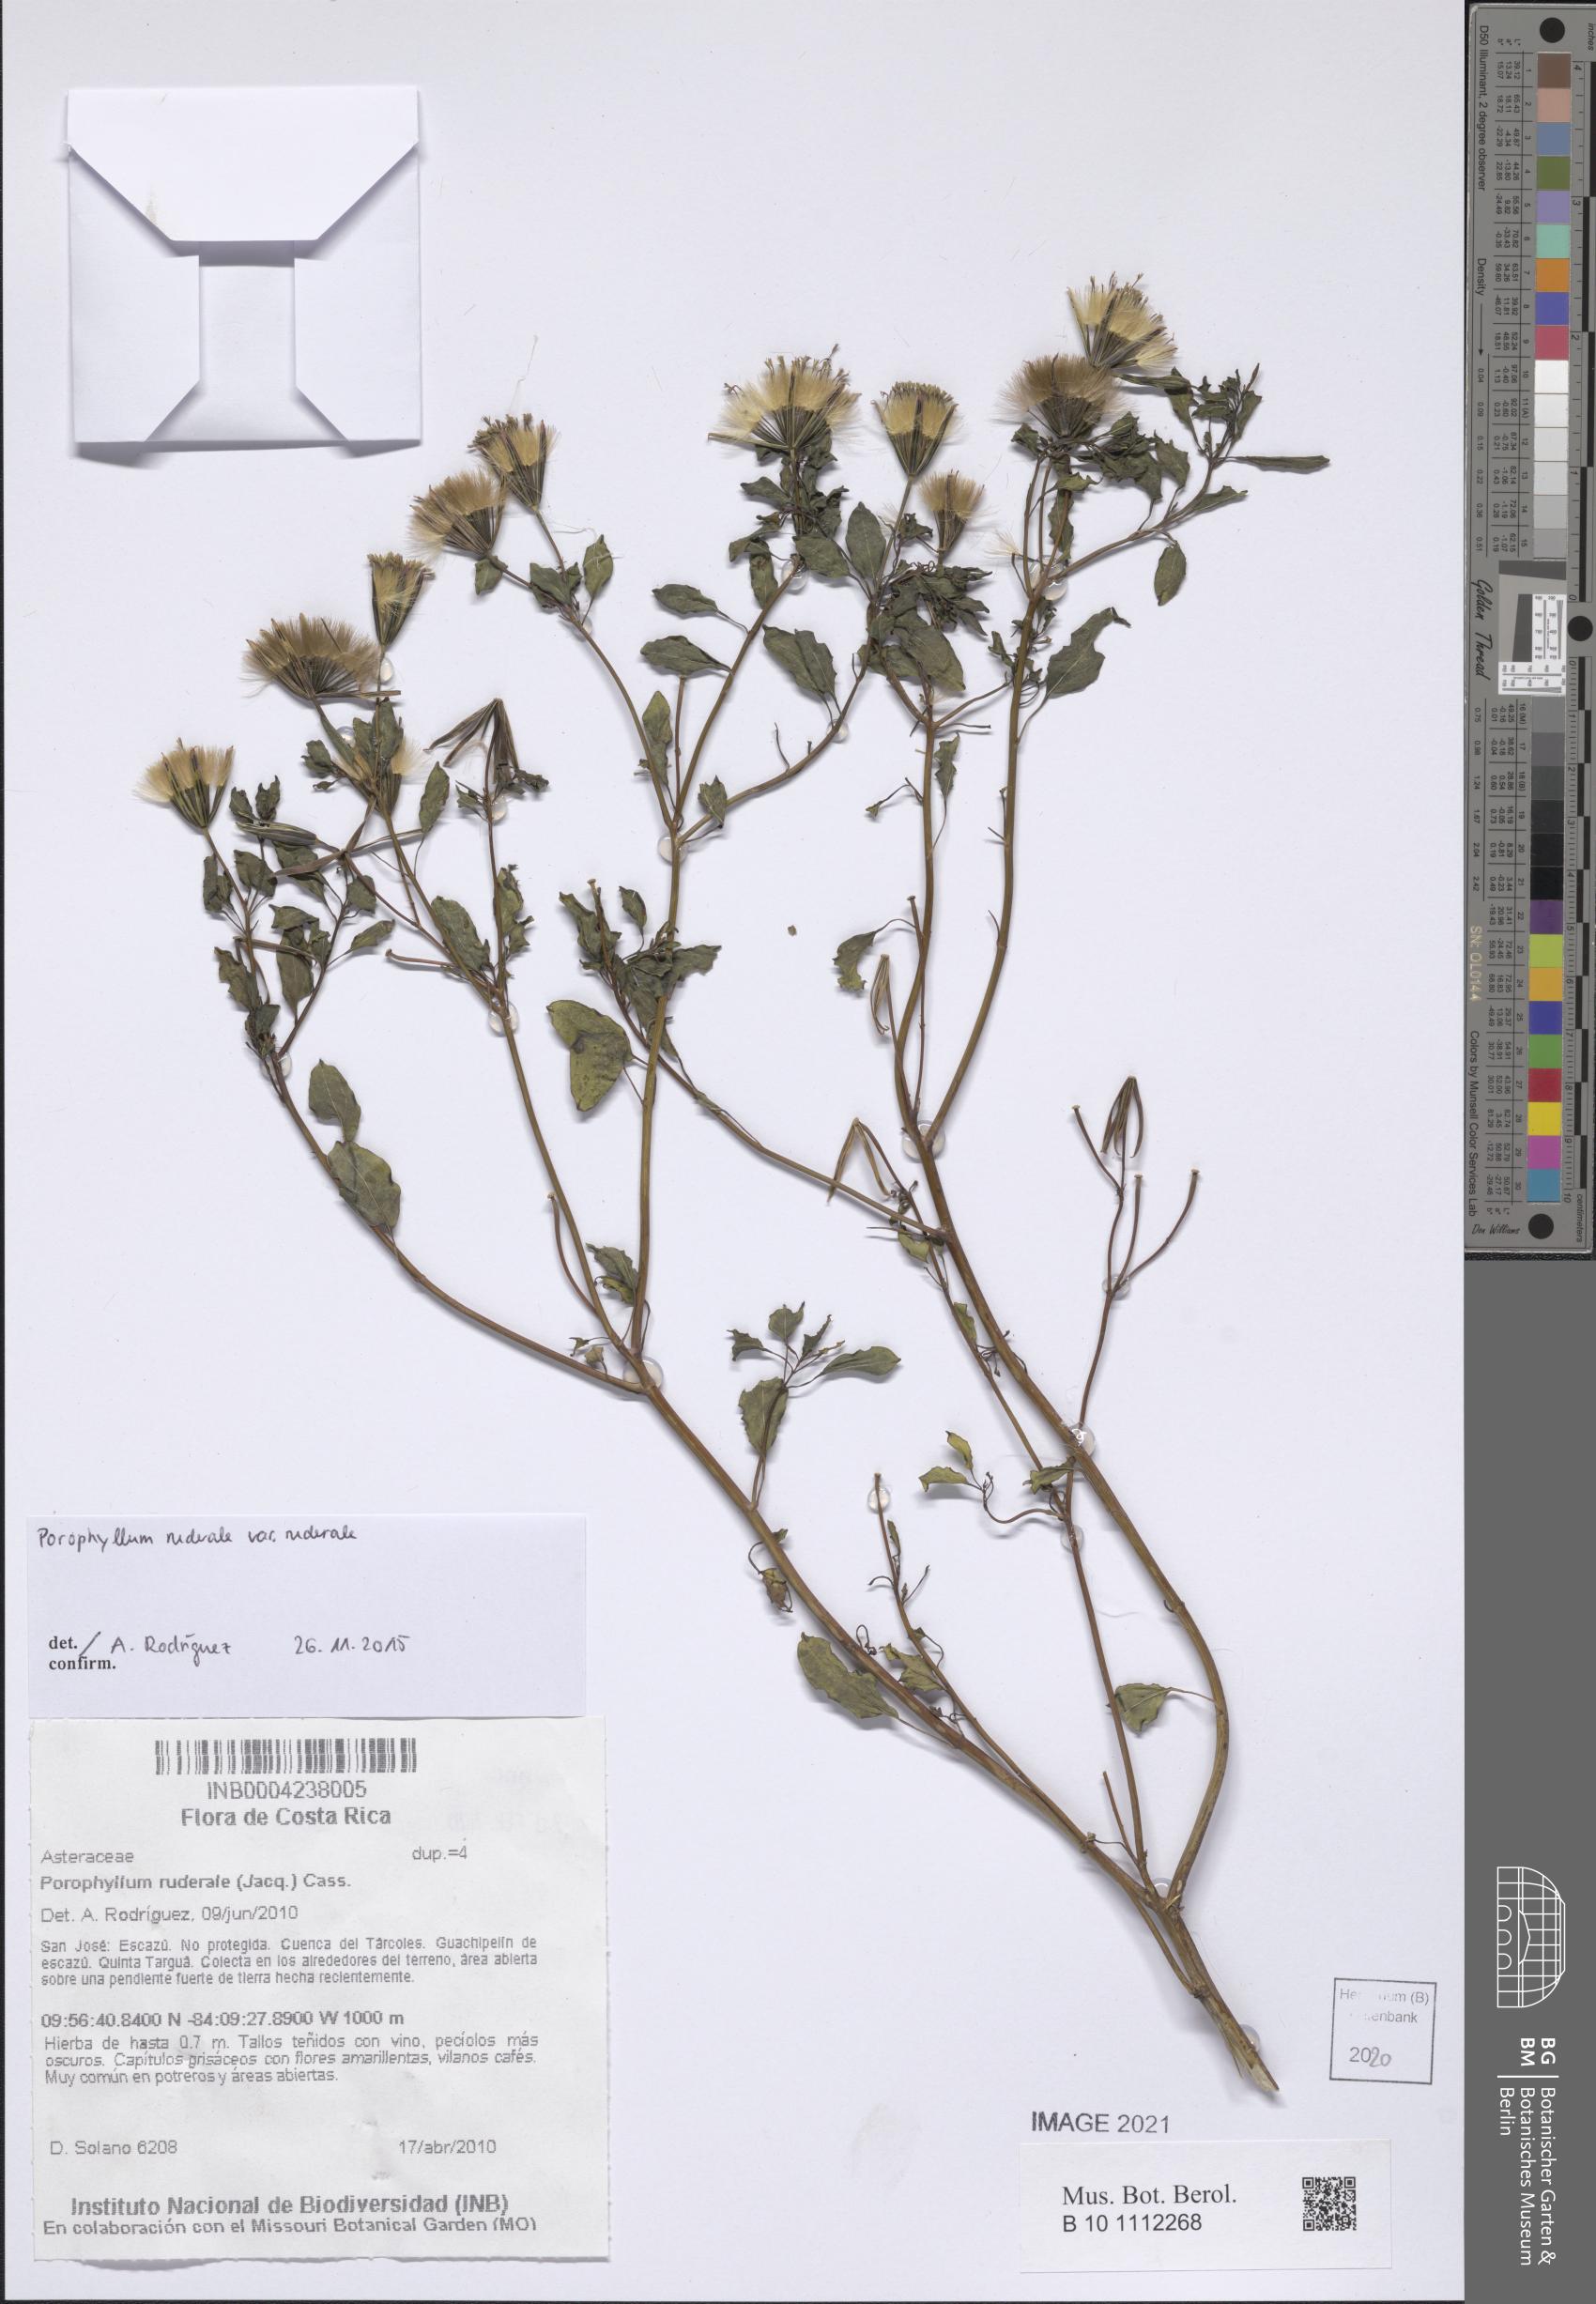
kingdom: Plantae
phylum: Tracheophyta
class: Magnoliopsida
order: Asterales
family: Asteraceae
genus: Porophyllum
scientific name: Porophyllum ruderale
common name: Yerba porosa
